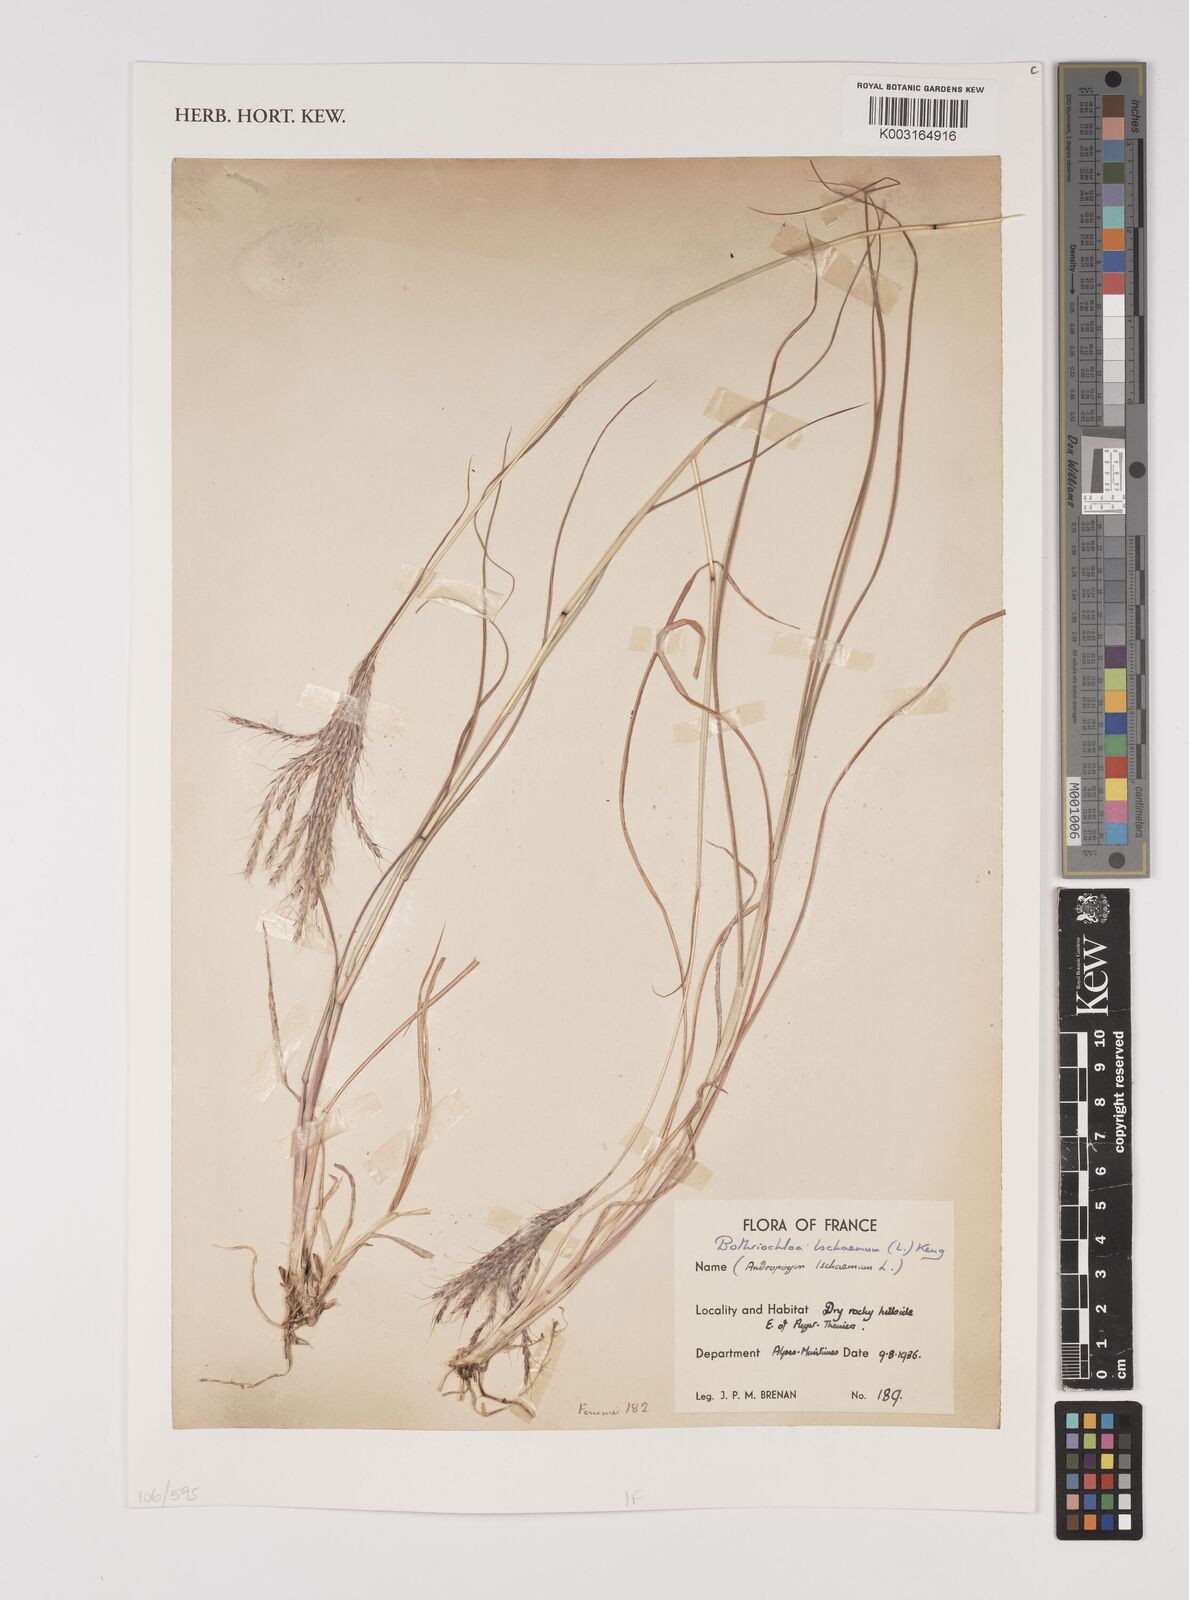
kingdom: Plantae
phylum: Tracheophyta
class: Liliopsida
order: Poales
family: Poaceae
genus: Bothriochloa
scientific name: Bothriochloa ischaemum
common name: Yellow bluestem
